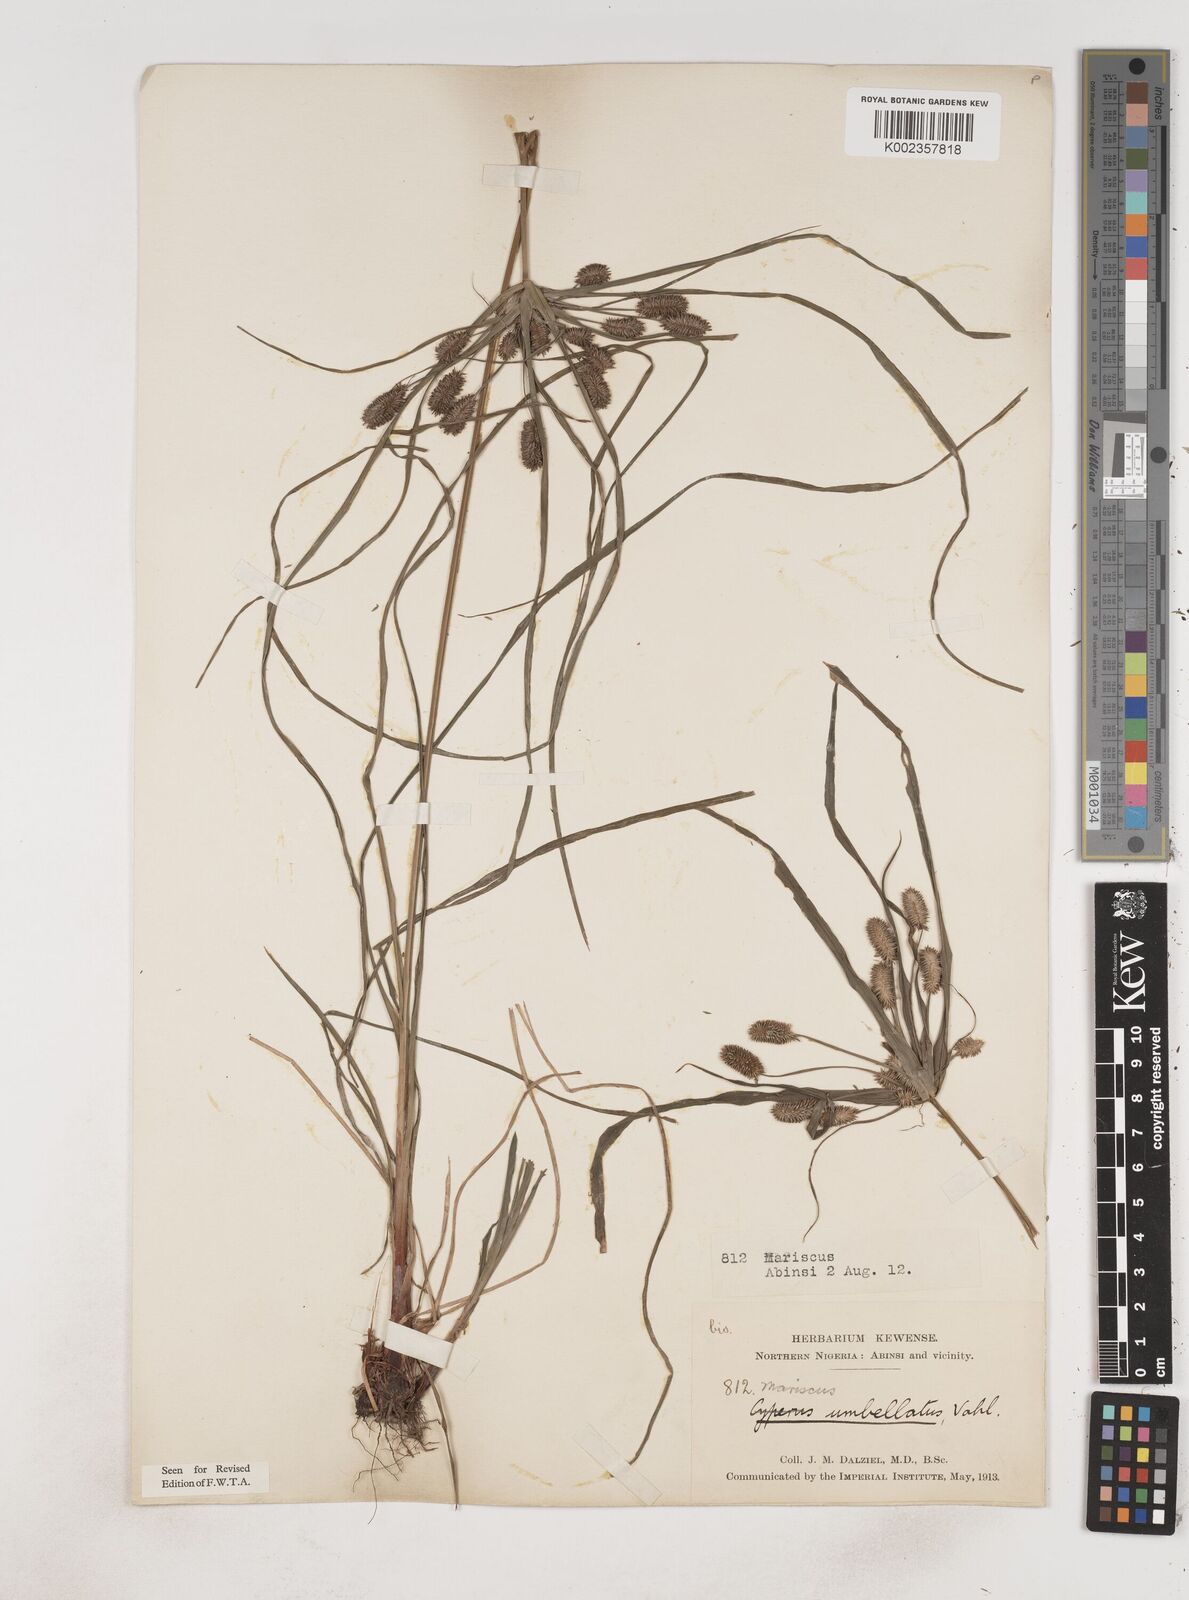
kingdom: Plantae
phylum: Tracheophyta
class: Liliopsida
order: Poales
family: Cyperaceae
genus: Cyperus
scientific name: Cyperus sublimis
